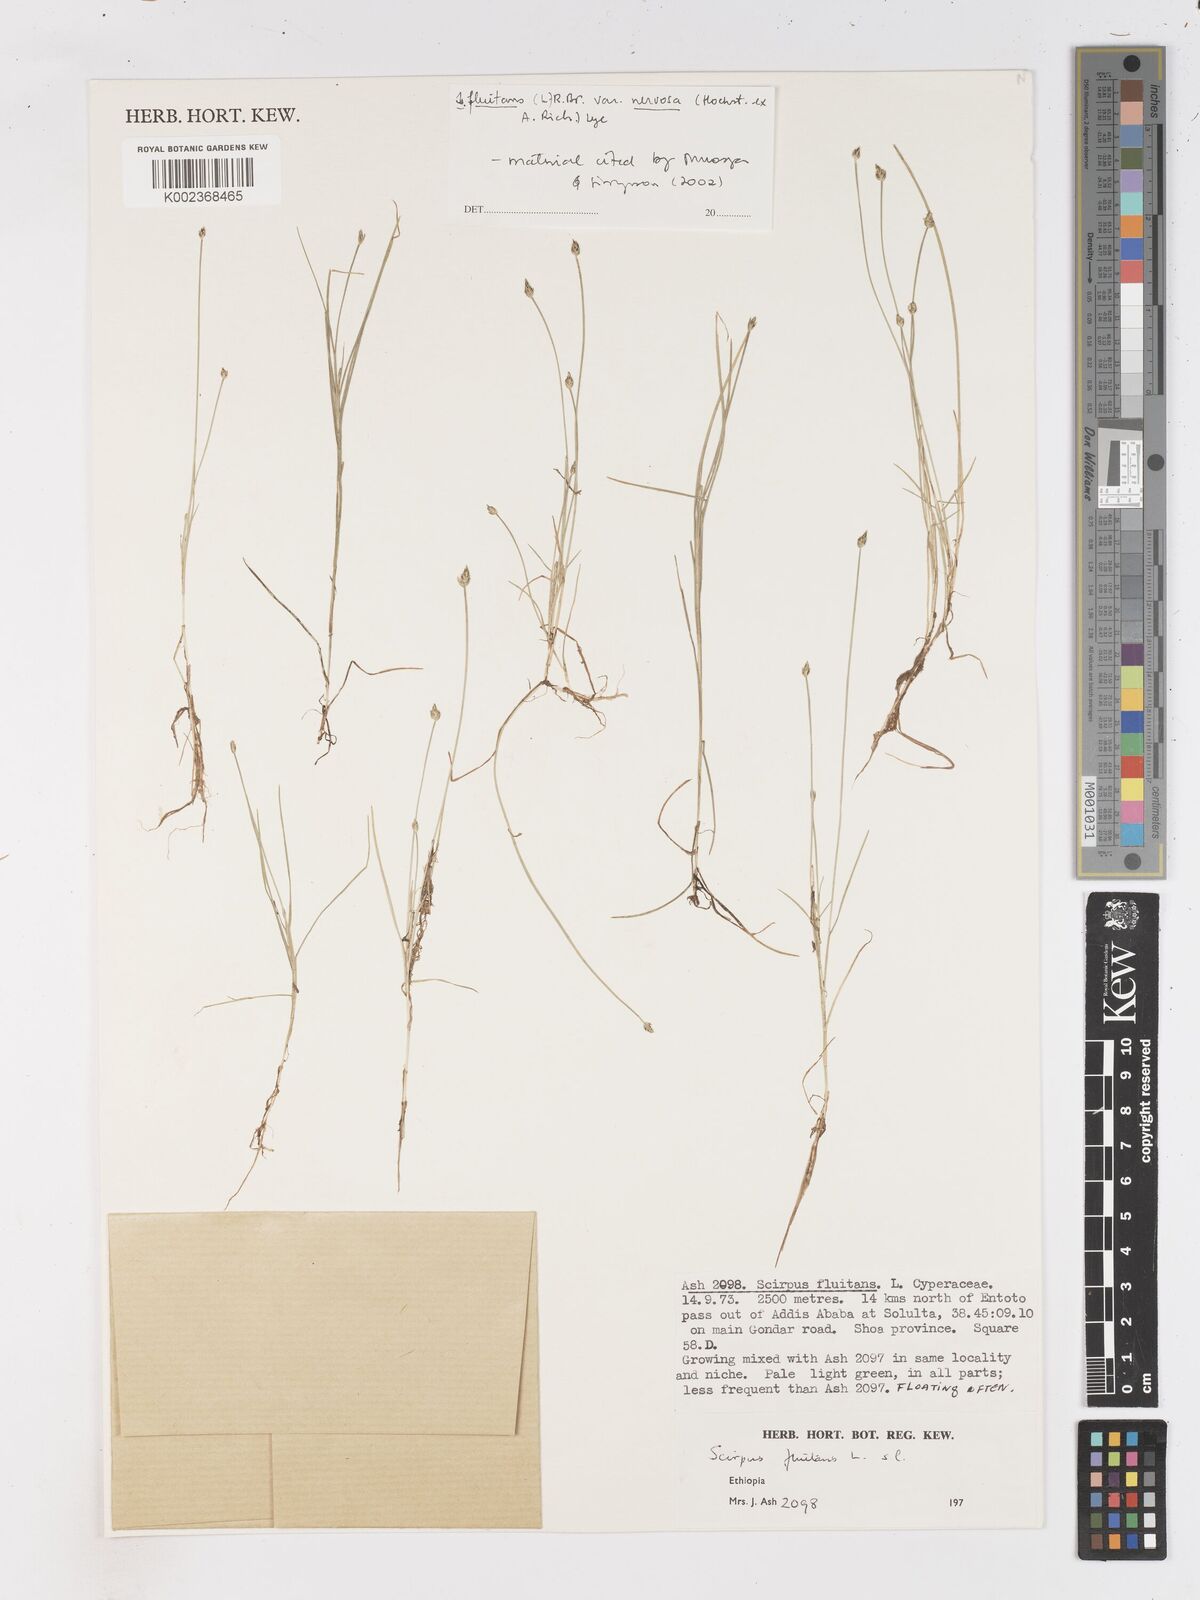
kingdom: Plantae
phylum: Tracheophyta
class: Liliopsida
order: Poales
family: Cyperaceae
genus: Isolepis
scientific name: Isolepis fluitans
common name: Floating club-rush
